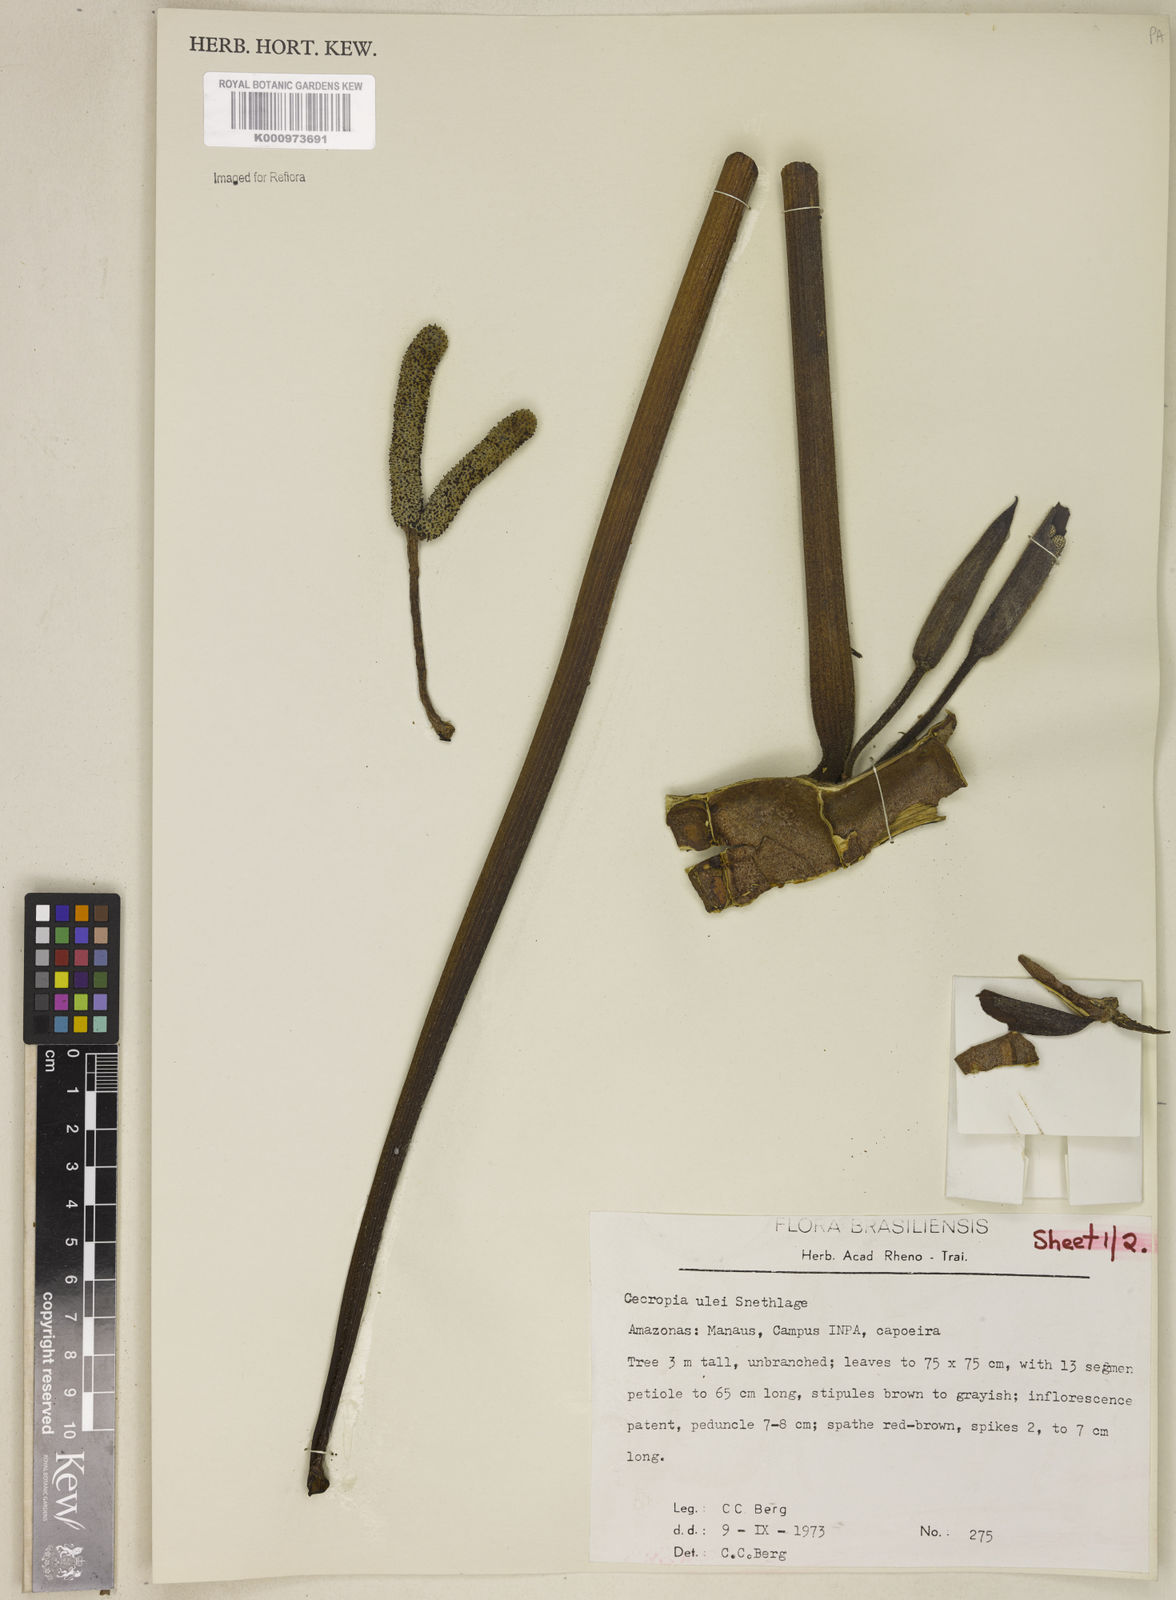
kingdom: Plantae
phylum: Tracheophyta
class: Magnoliopsida
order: Rosales
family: Urticaceae
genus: Cecropia
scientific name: Cecropia ulei
